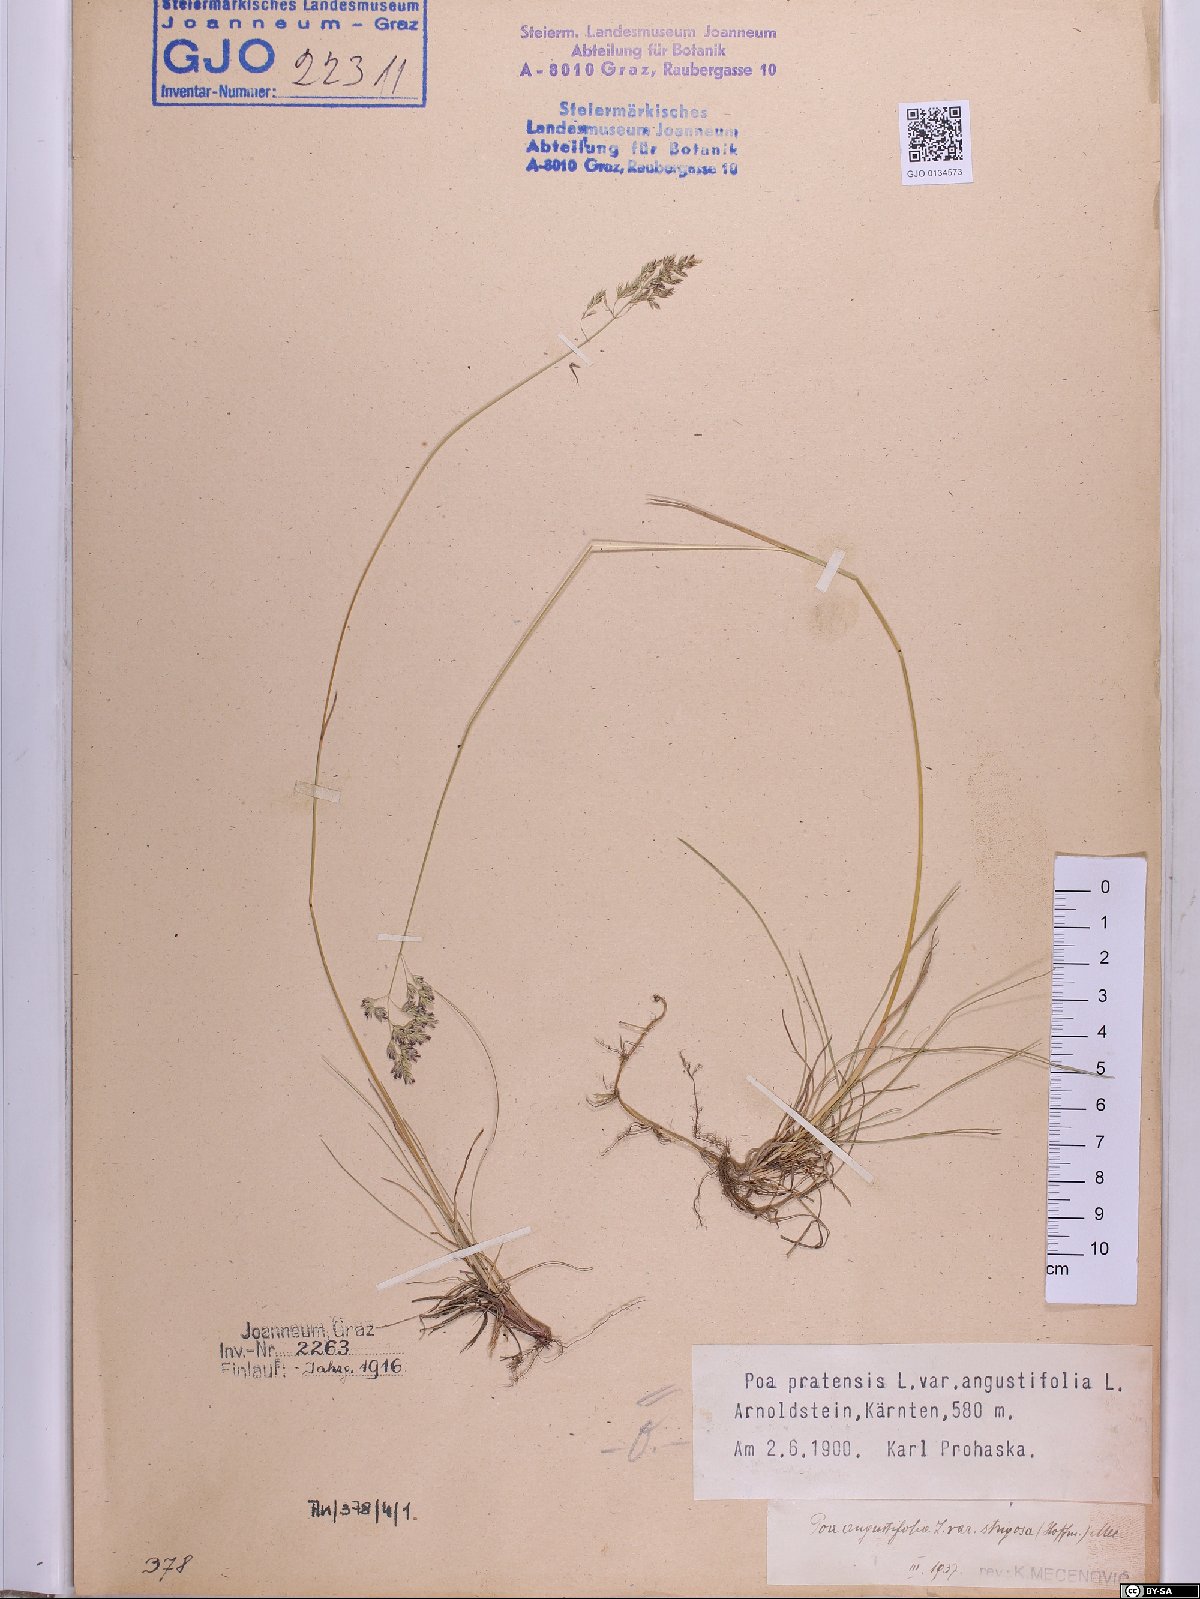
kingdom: Plantae
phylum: Tracheophyta
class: Liliopsida
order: Poales
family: Poaceae
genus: Poa
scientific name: Poa angustifolia
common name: Narrow-leaved meadow-grass
